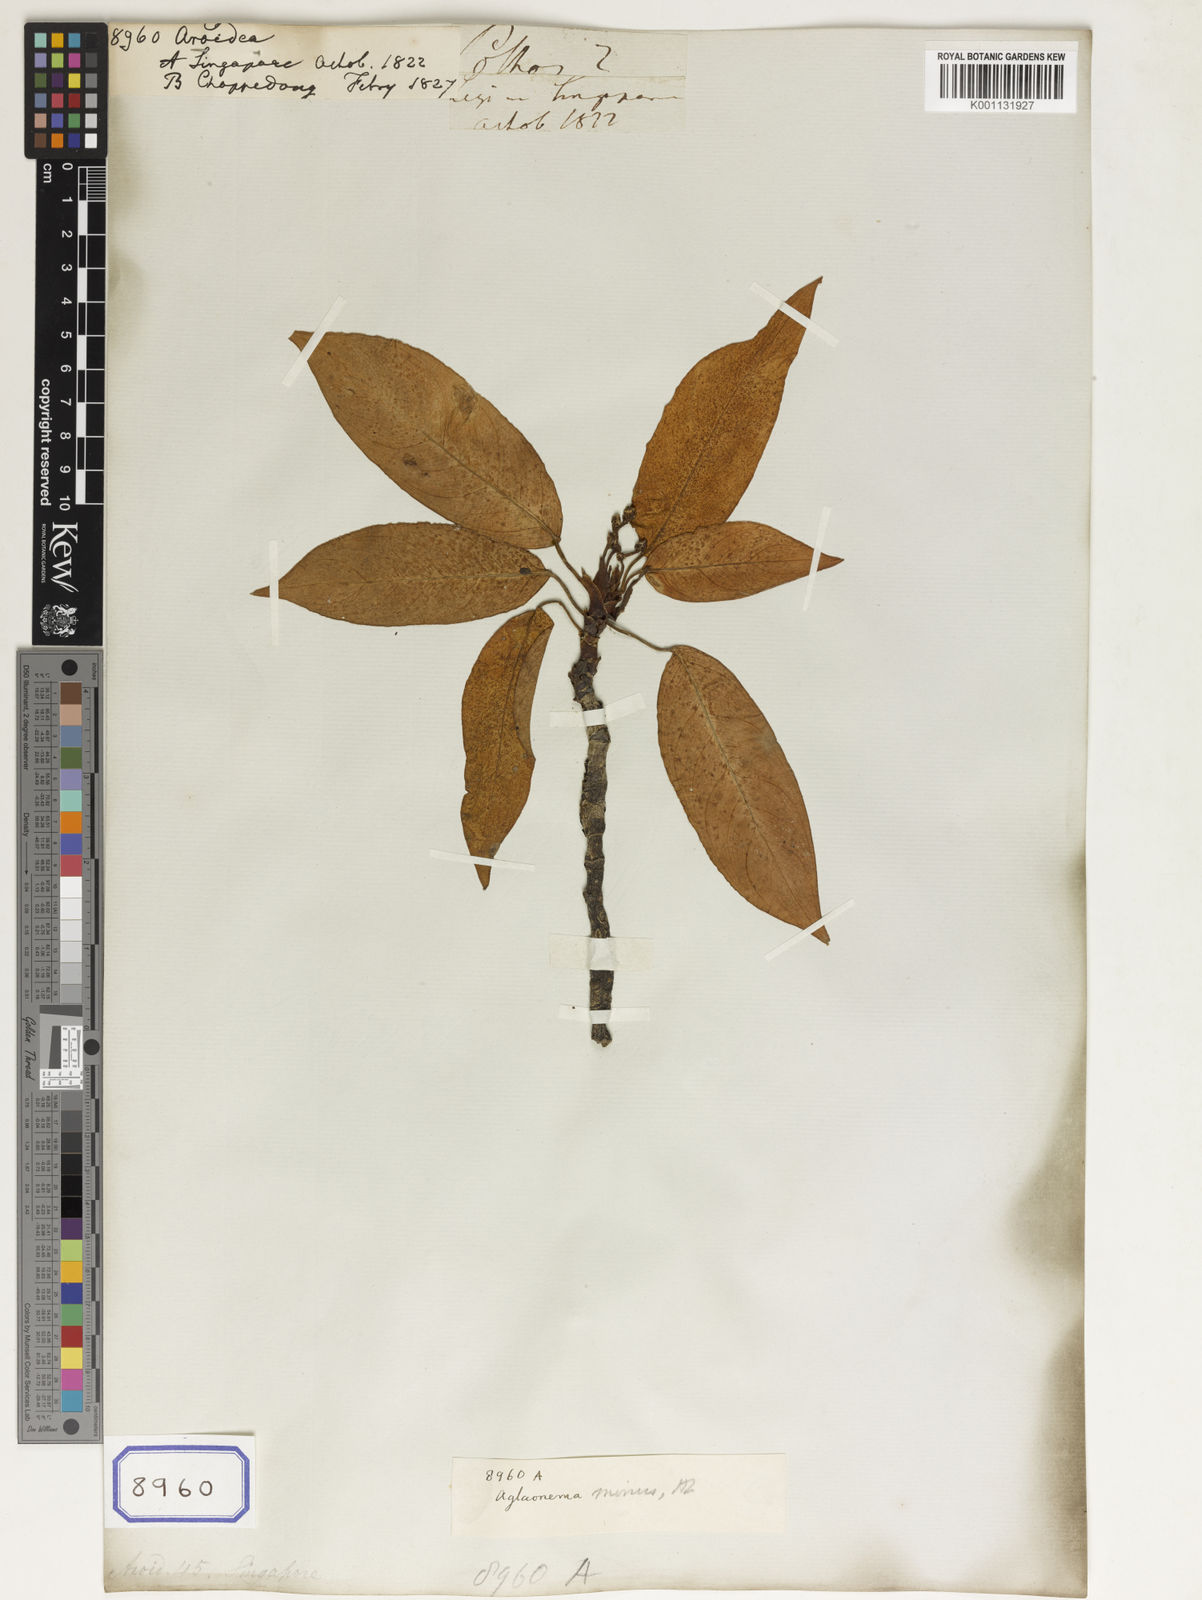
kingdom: Plantae
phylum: Tracheophyta
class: Liliopsida
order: Alismatales
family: Araceae
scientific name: Araceae
